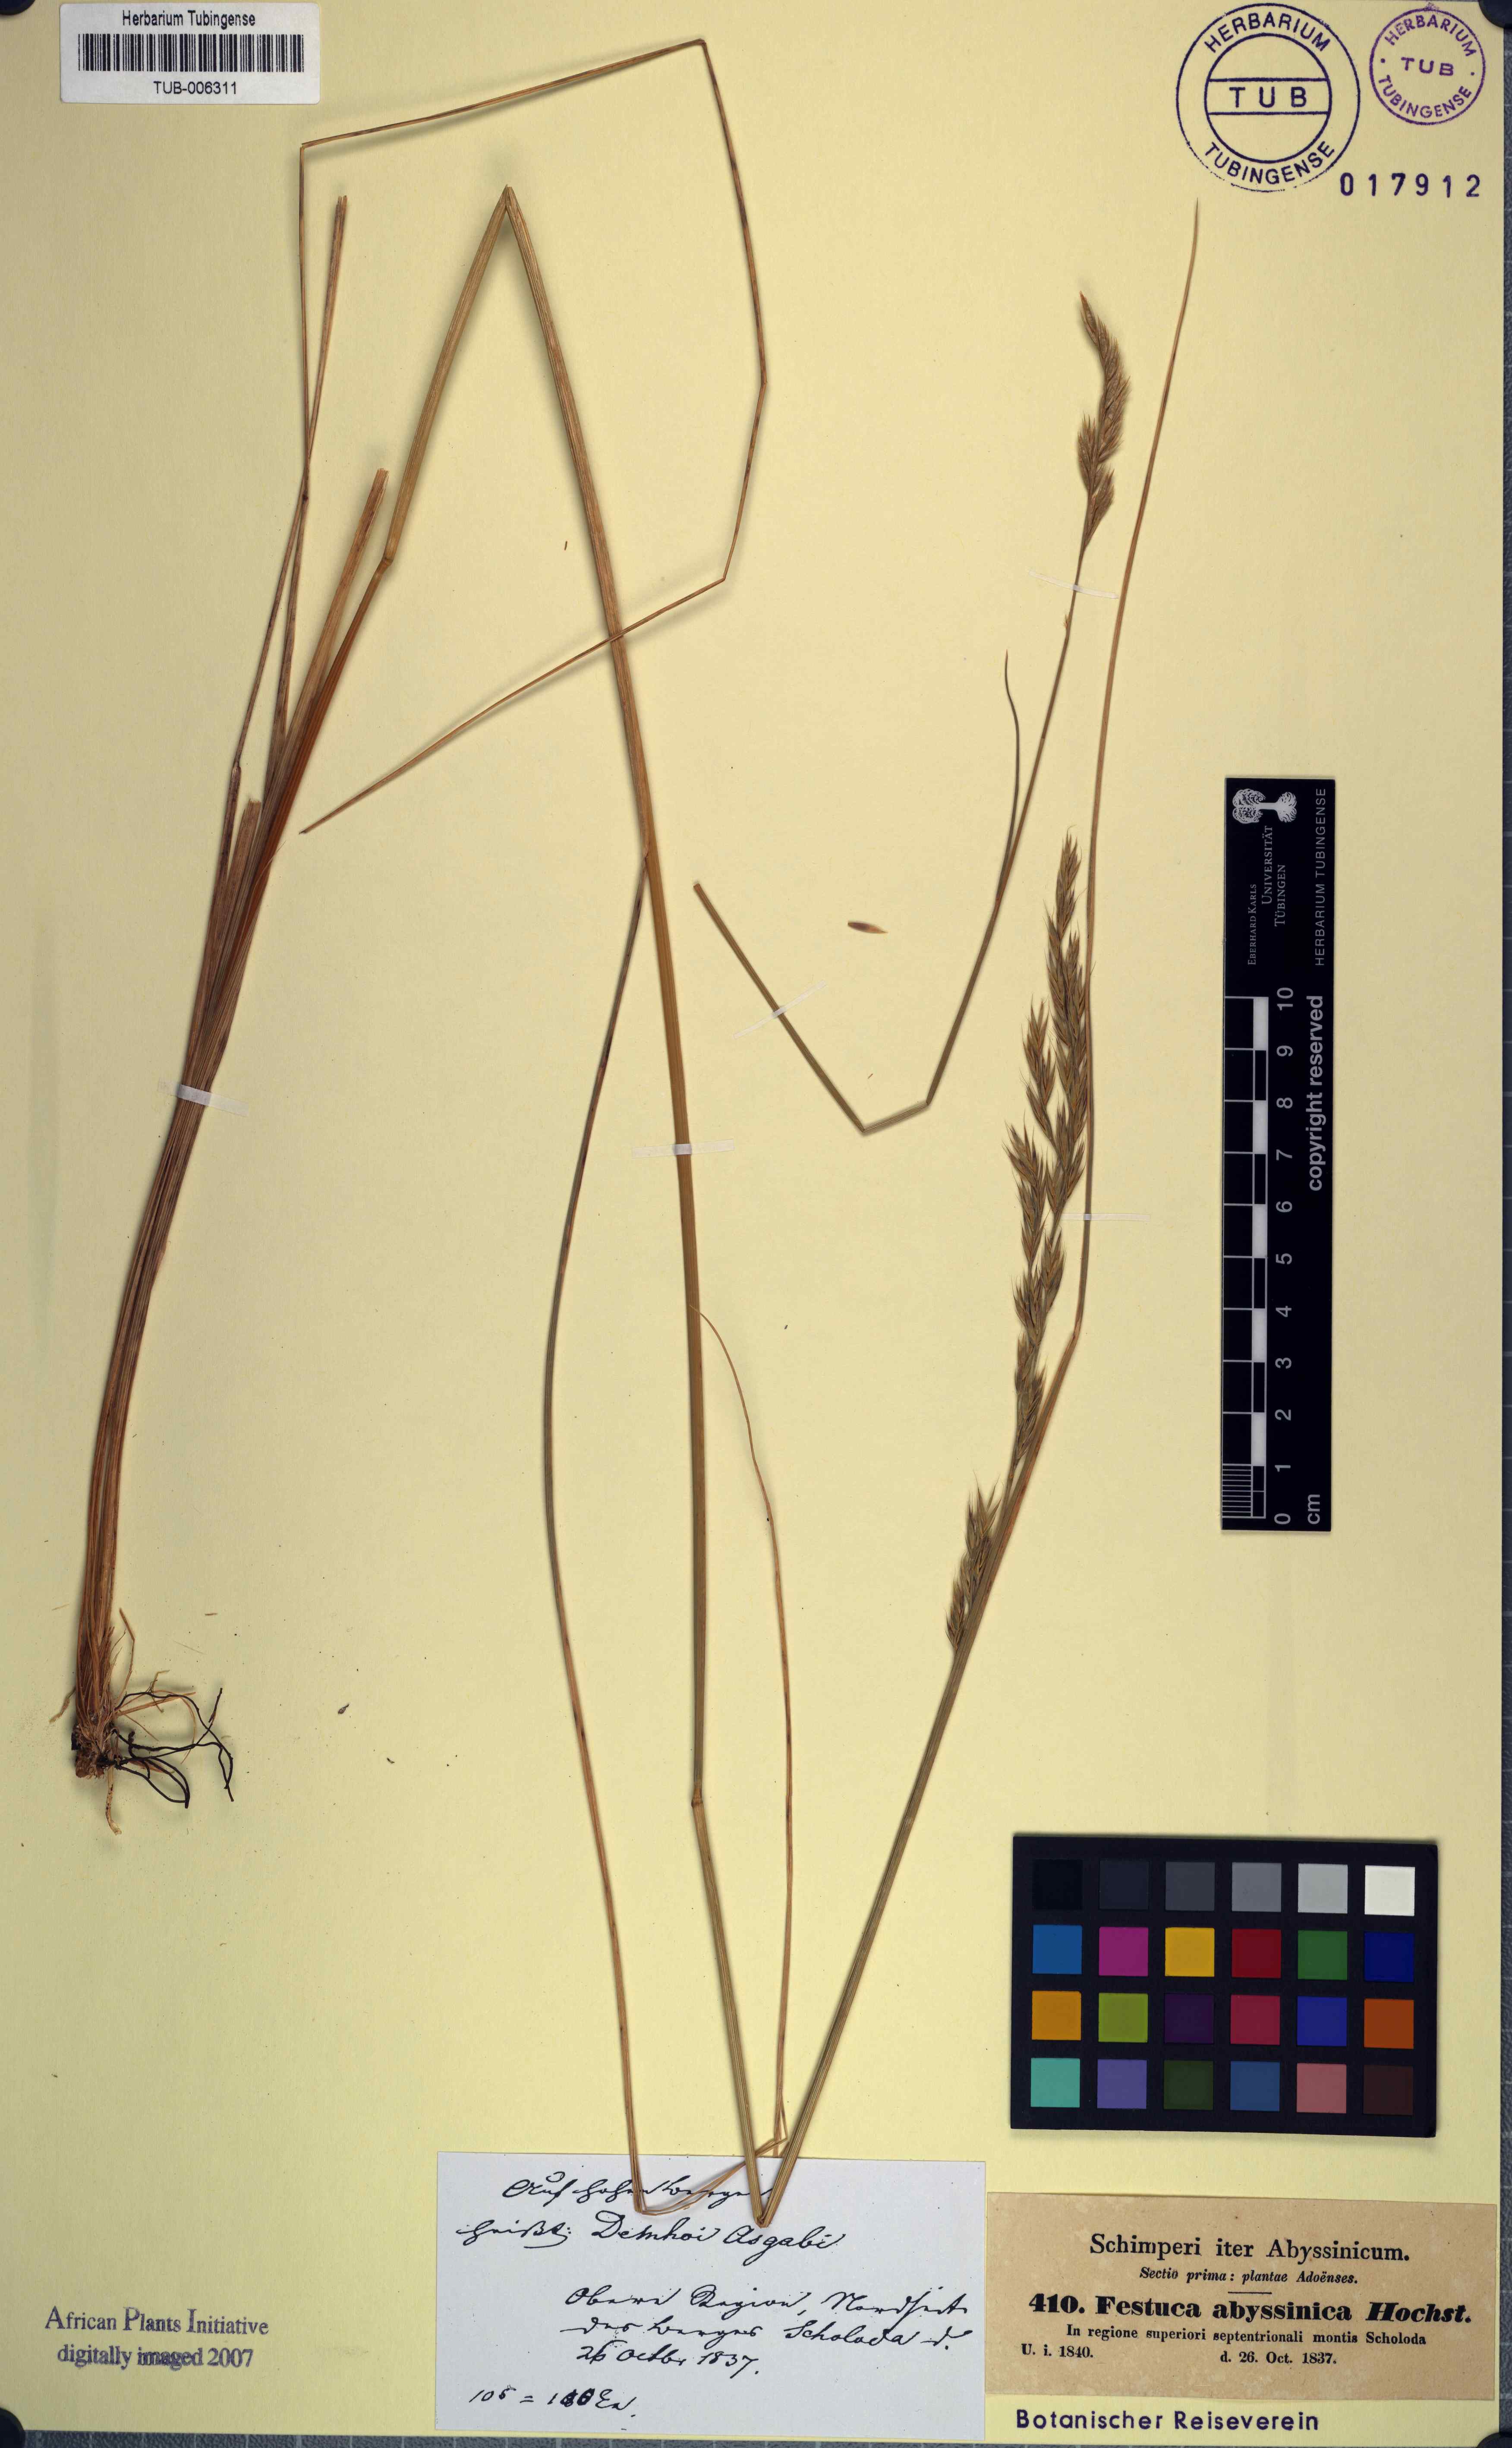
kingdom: Plantae
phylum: Tracheophyta
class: Liliopsida
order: Poales
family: Poaceae
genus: Festuca
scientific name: Festuca abyssinica
